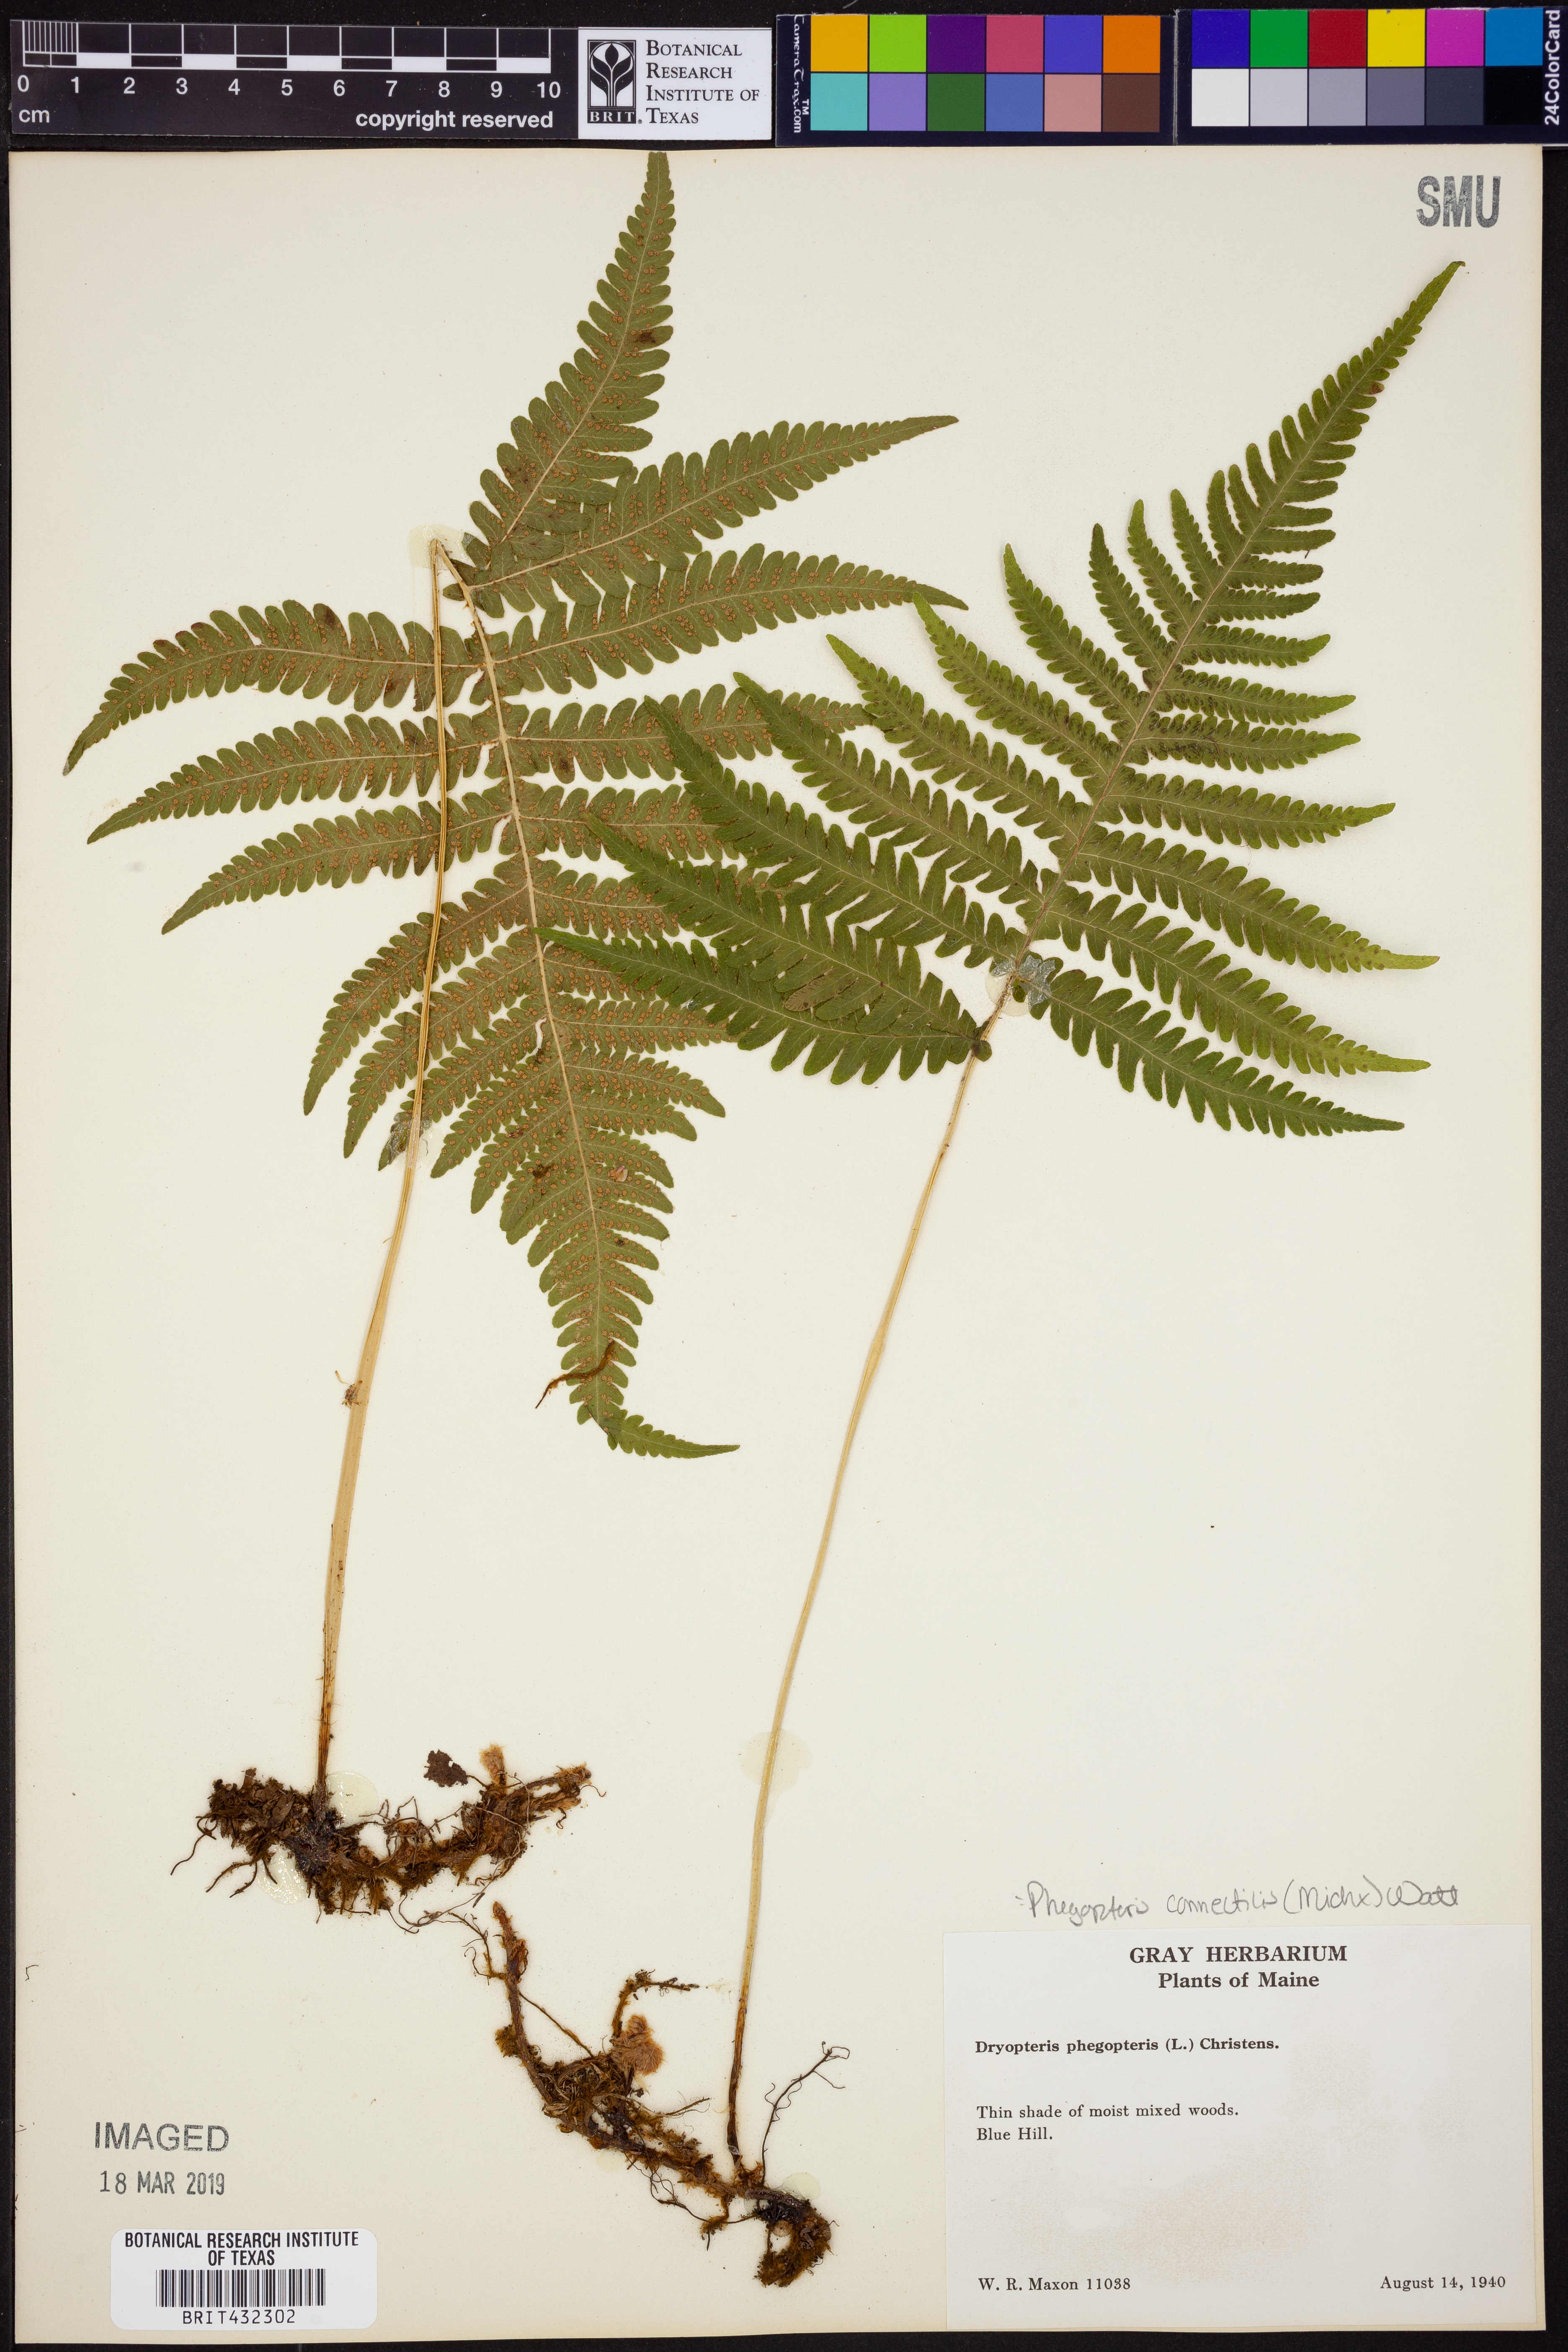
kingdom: Plantae
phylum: Tracheophyta
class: Polypodiopsida
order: Polypodiales
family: Thelypteridaceae
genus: Phegopteris
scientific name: Phegopteris connectilis
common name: Beech fern
